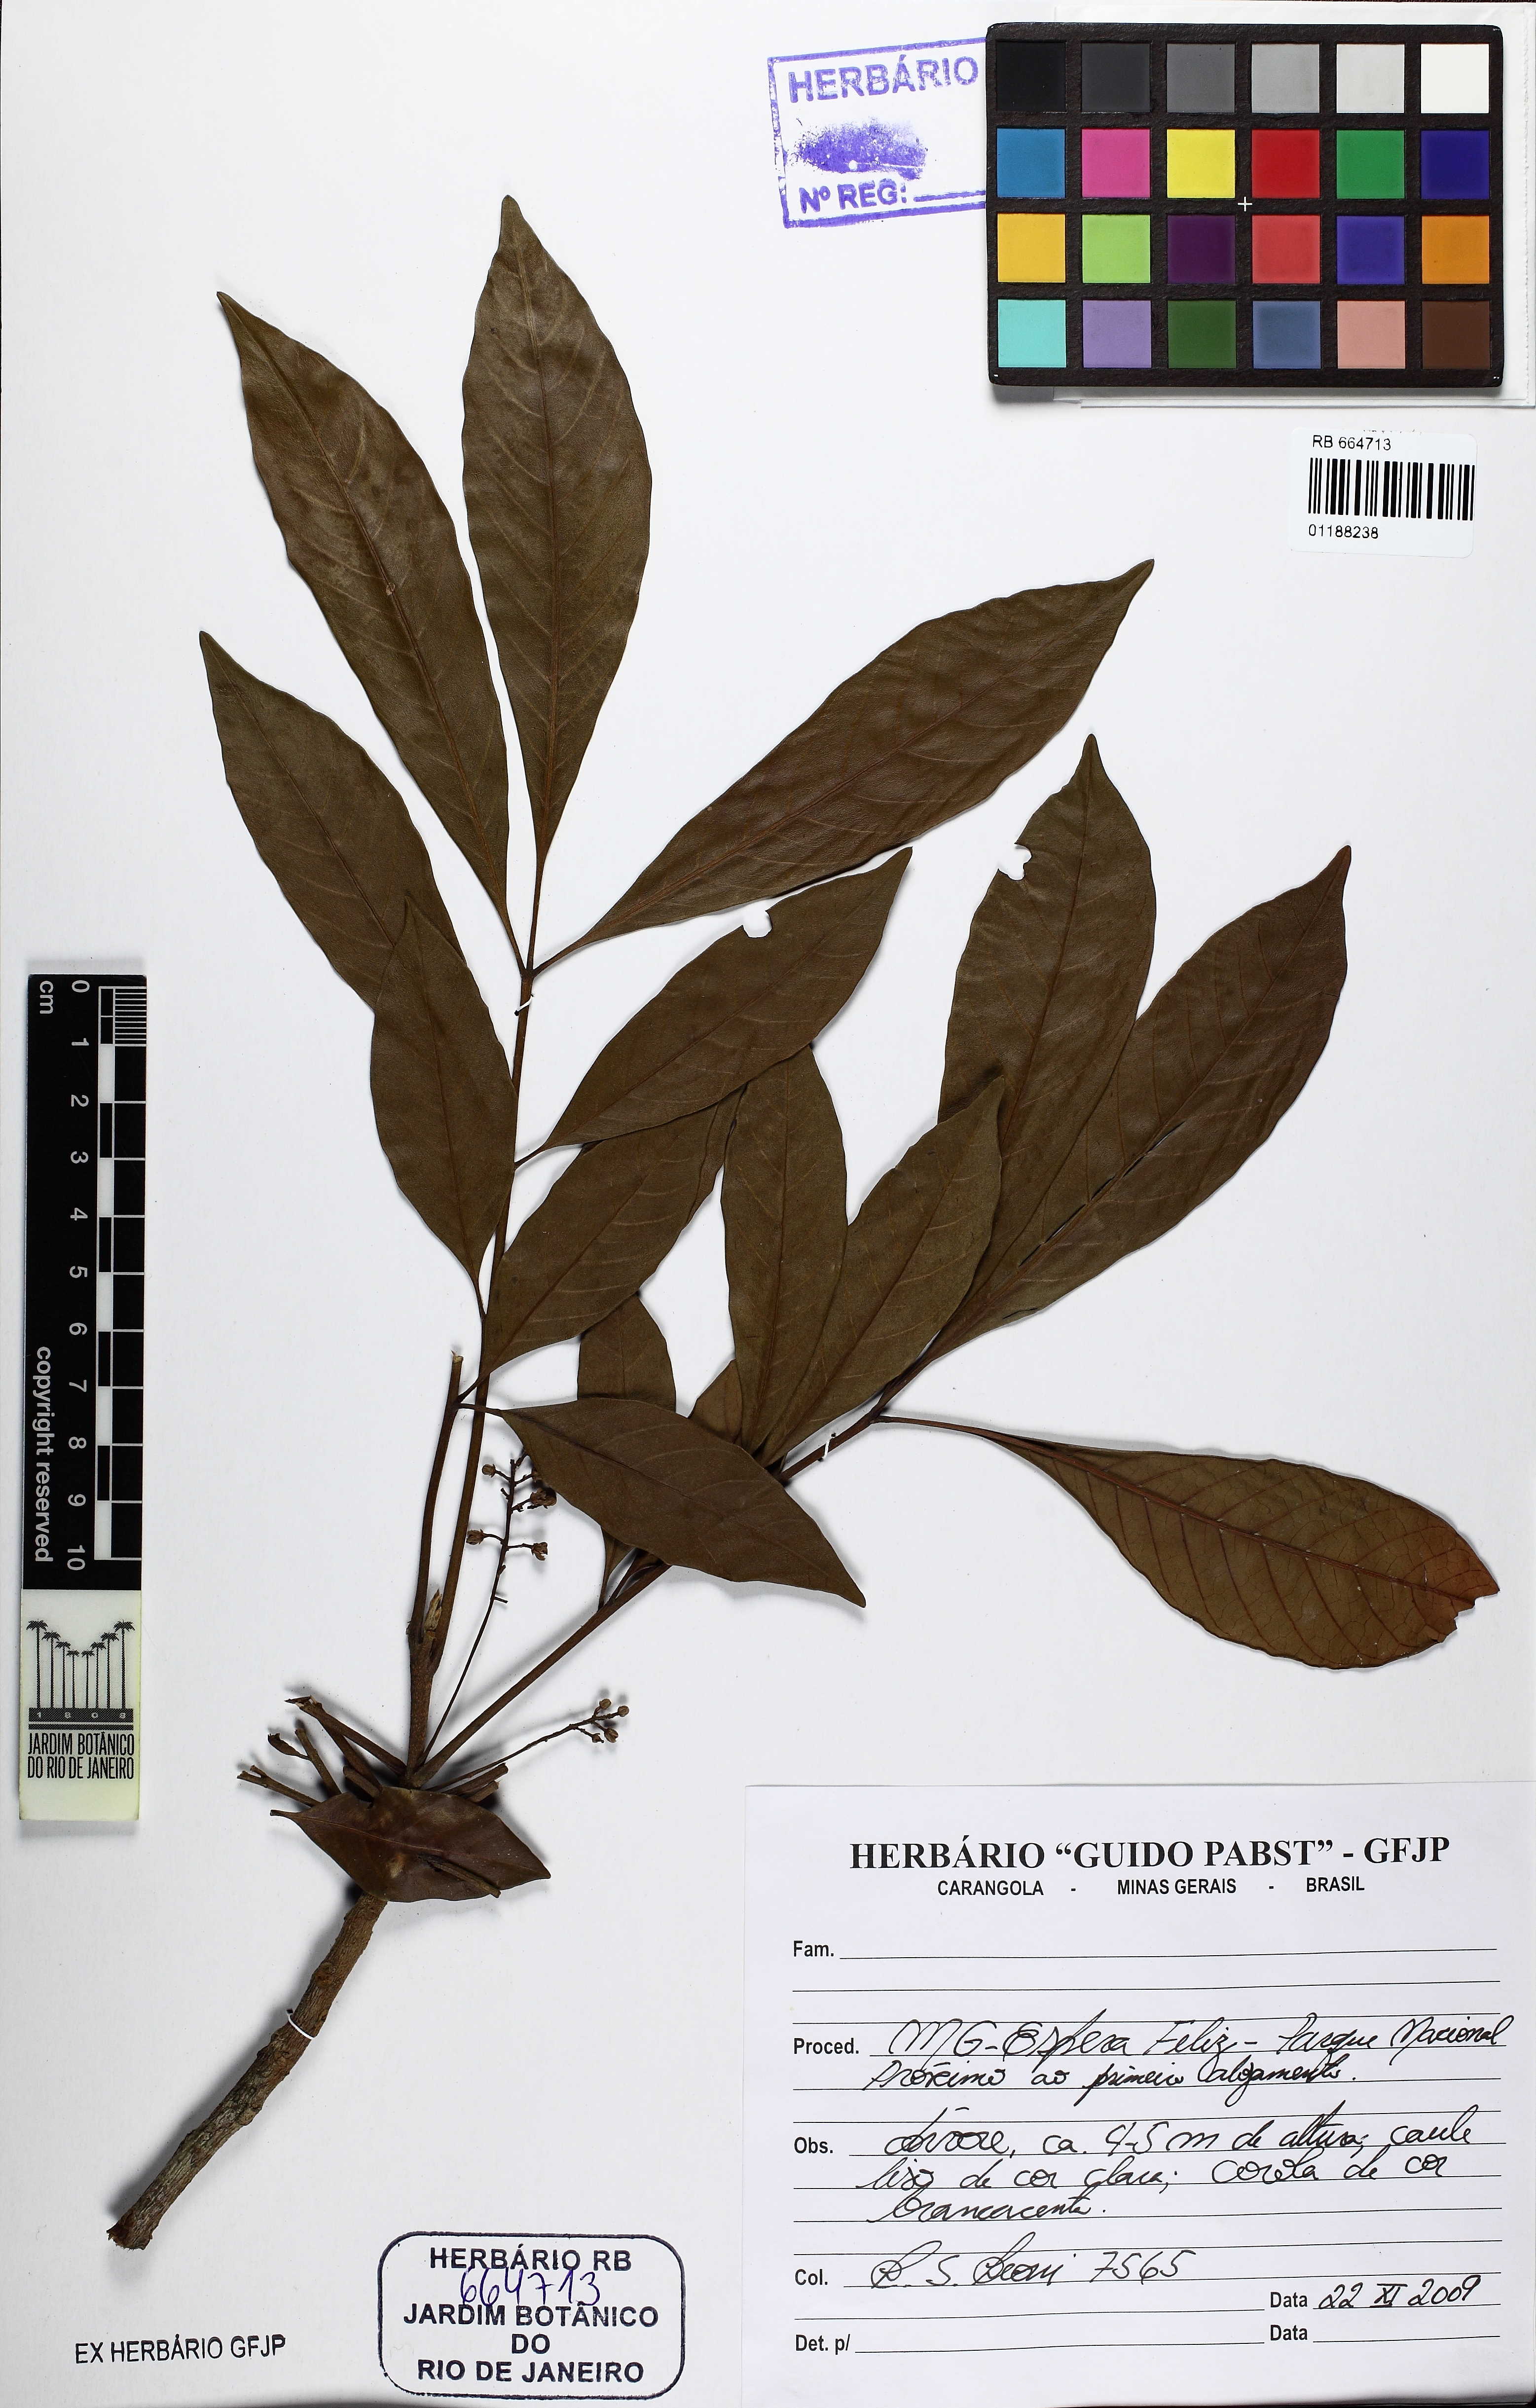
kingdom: Plantae
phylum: Tracheophyta
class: Magnoliopsida
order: Sapindales
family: Meliaceae
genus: Trichilia
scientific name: Trichilia
